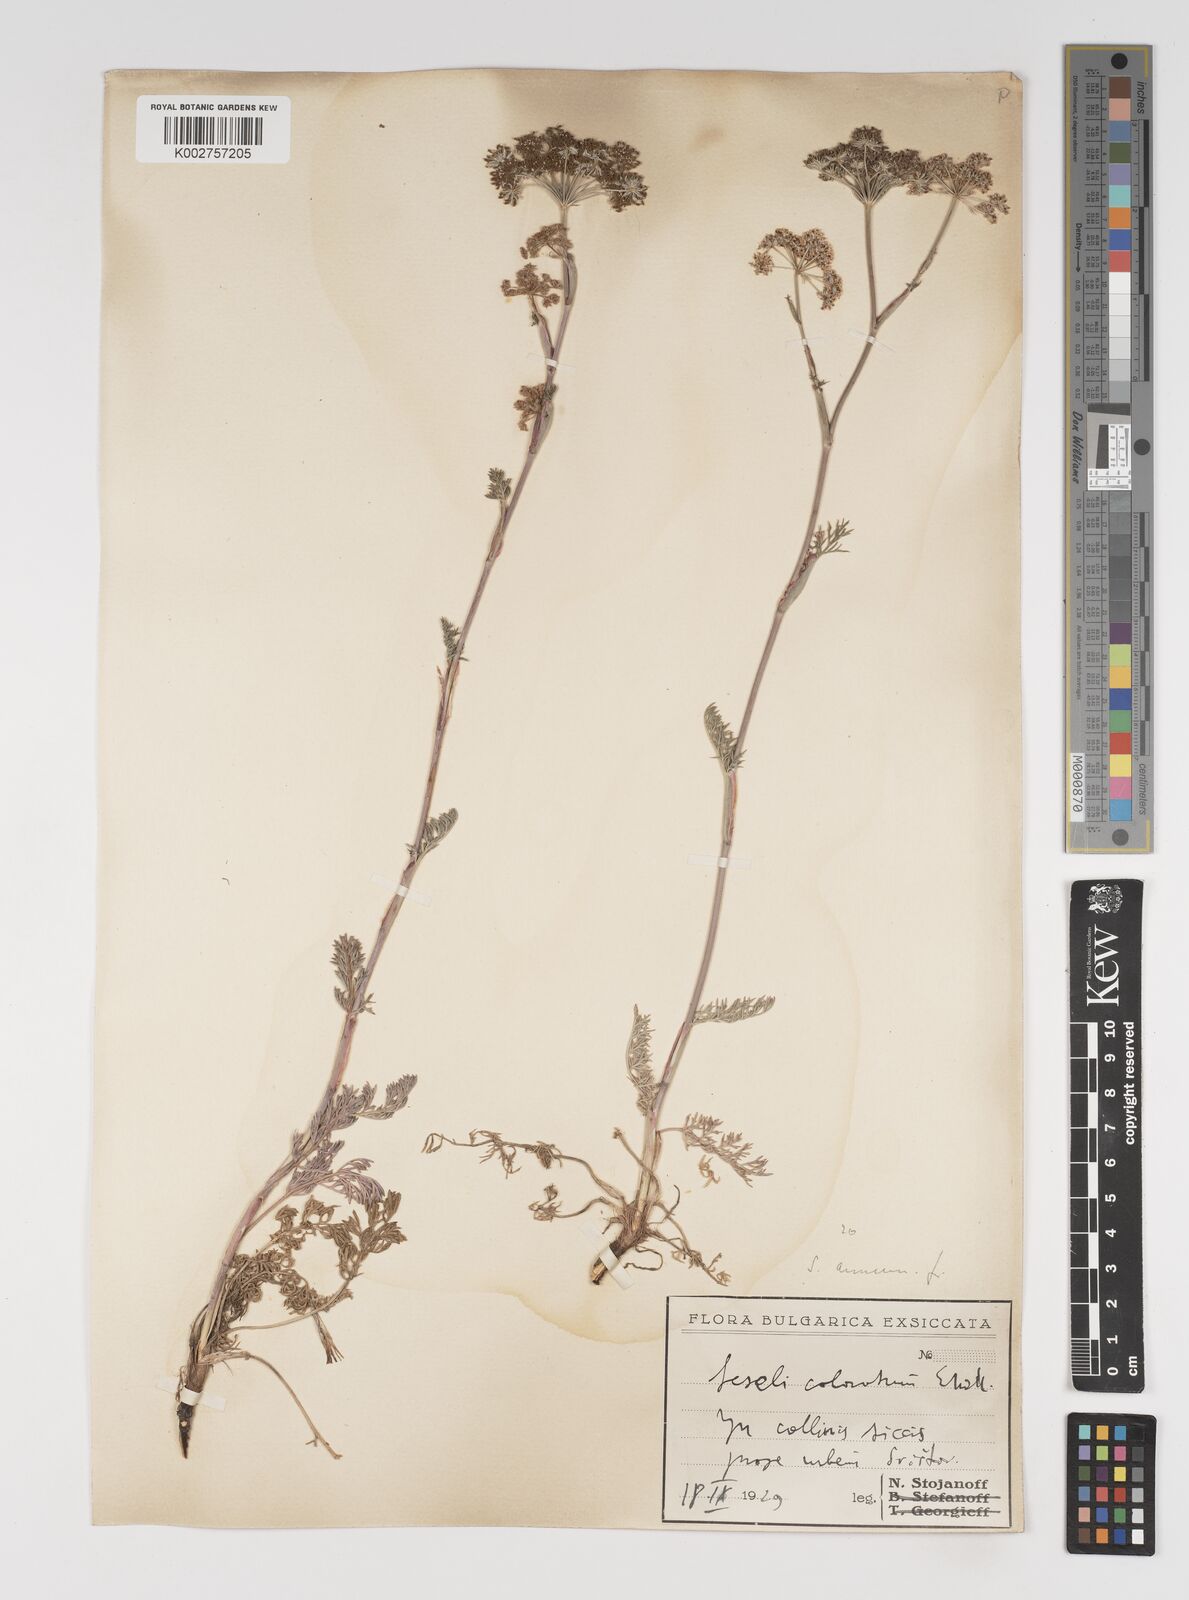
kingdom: Plantae
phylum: Tracheophyta
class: Magnoliopsida
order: Apiales
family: Apiaceae
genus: Seseli
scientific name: Seseli annuum
